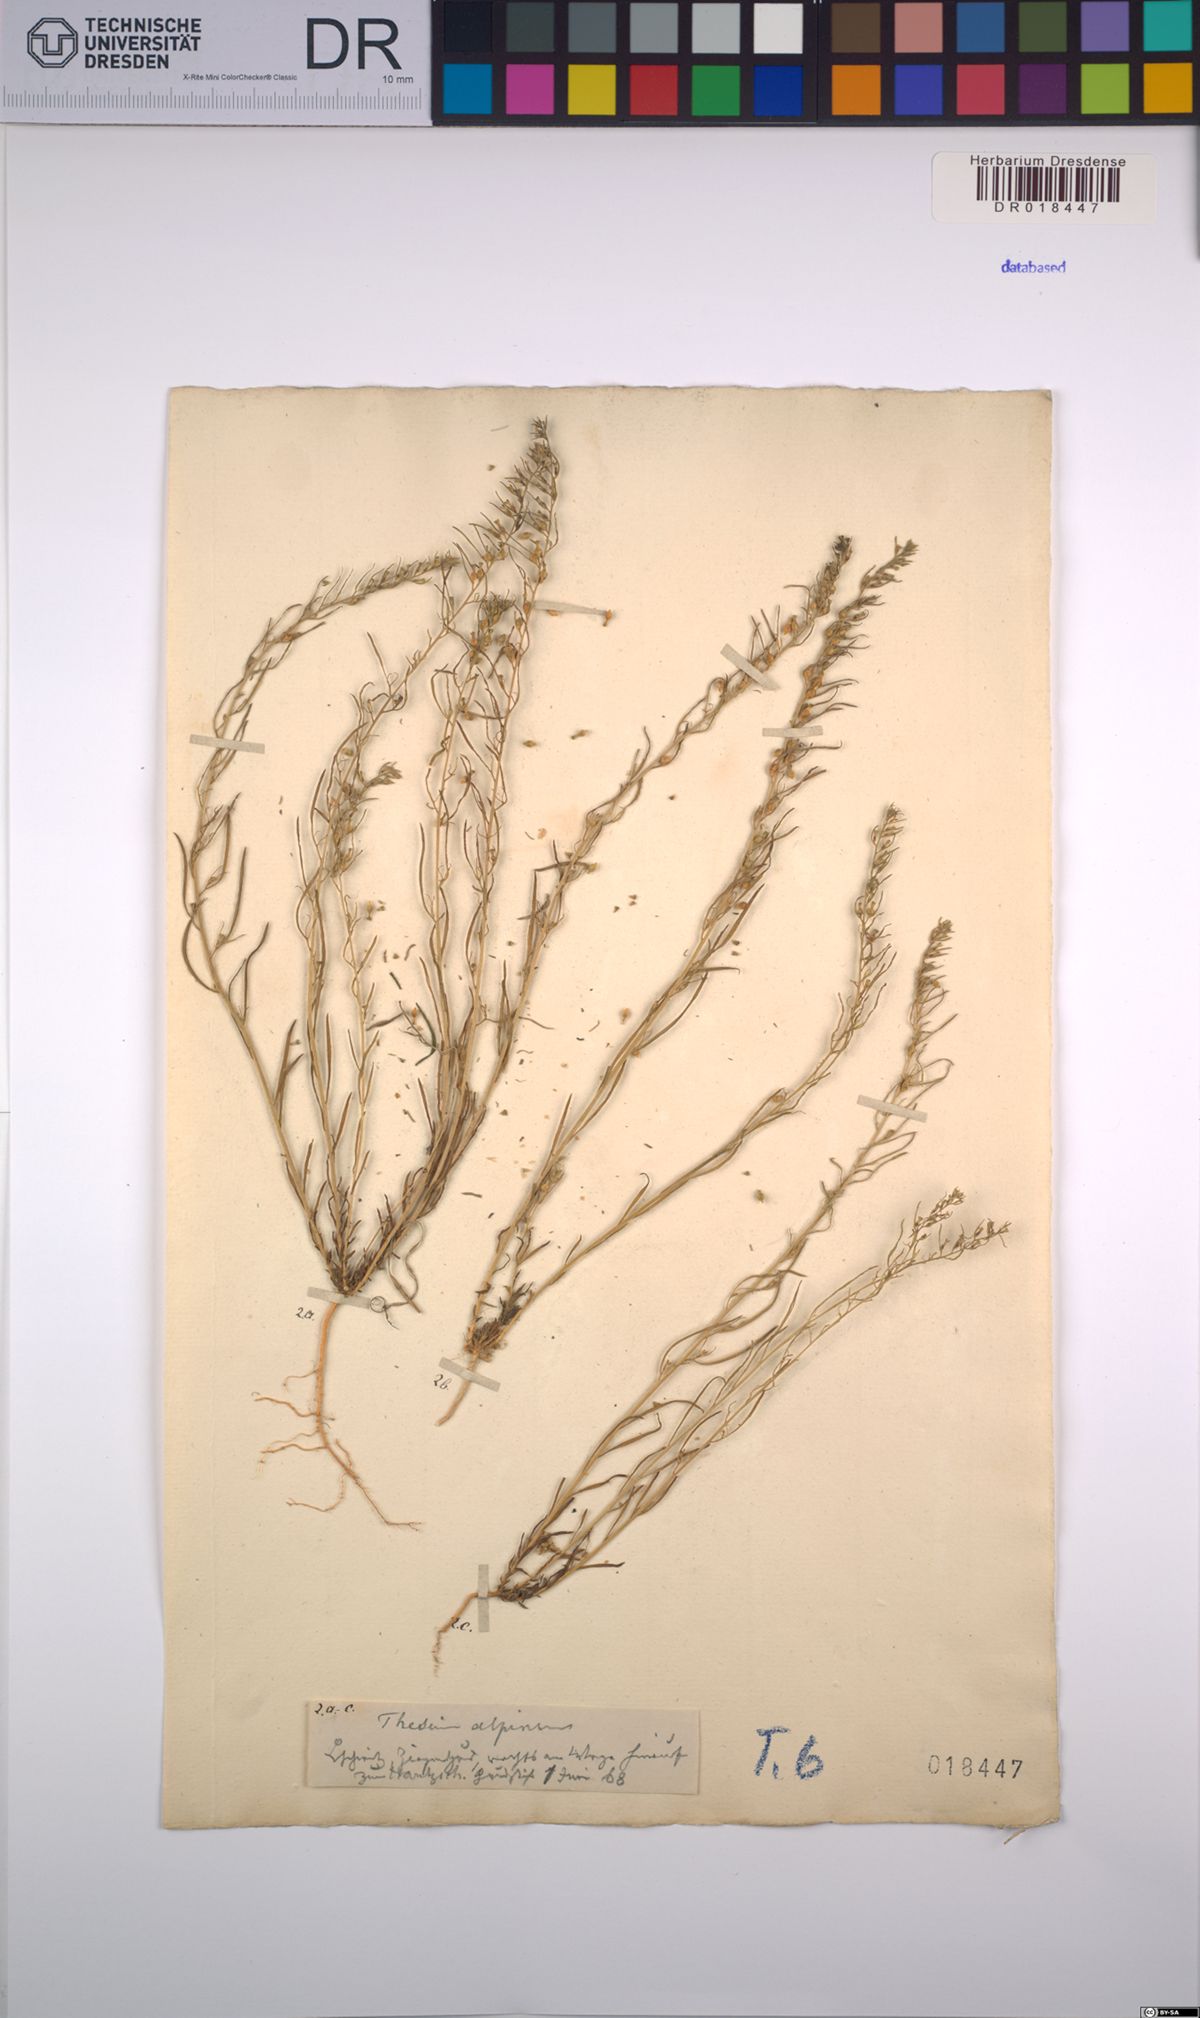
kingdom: Plantae
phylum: Tracheophyta
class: Magnoliopsida
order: Santalales
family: Thesiaceae
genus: Thesium
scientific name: Thesium alpinum
